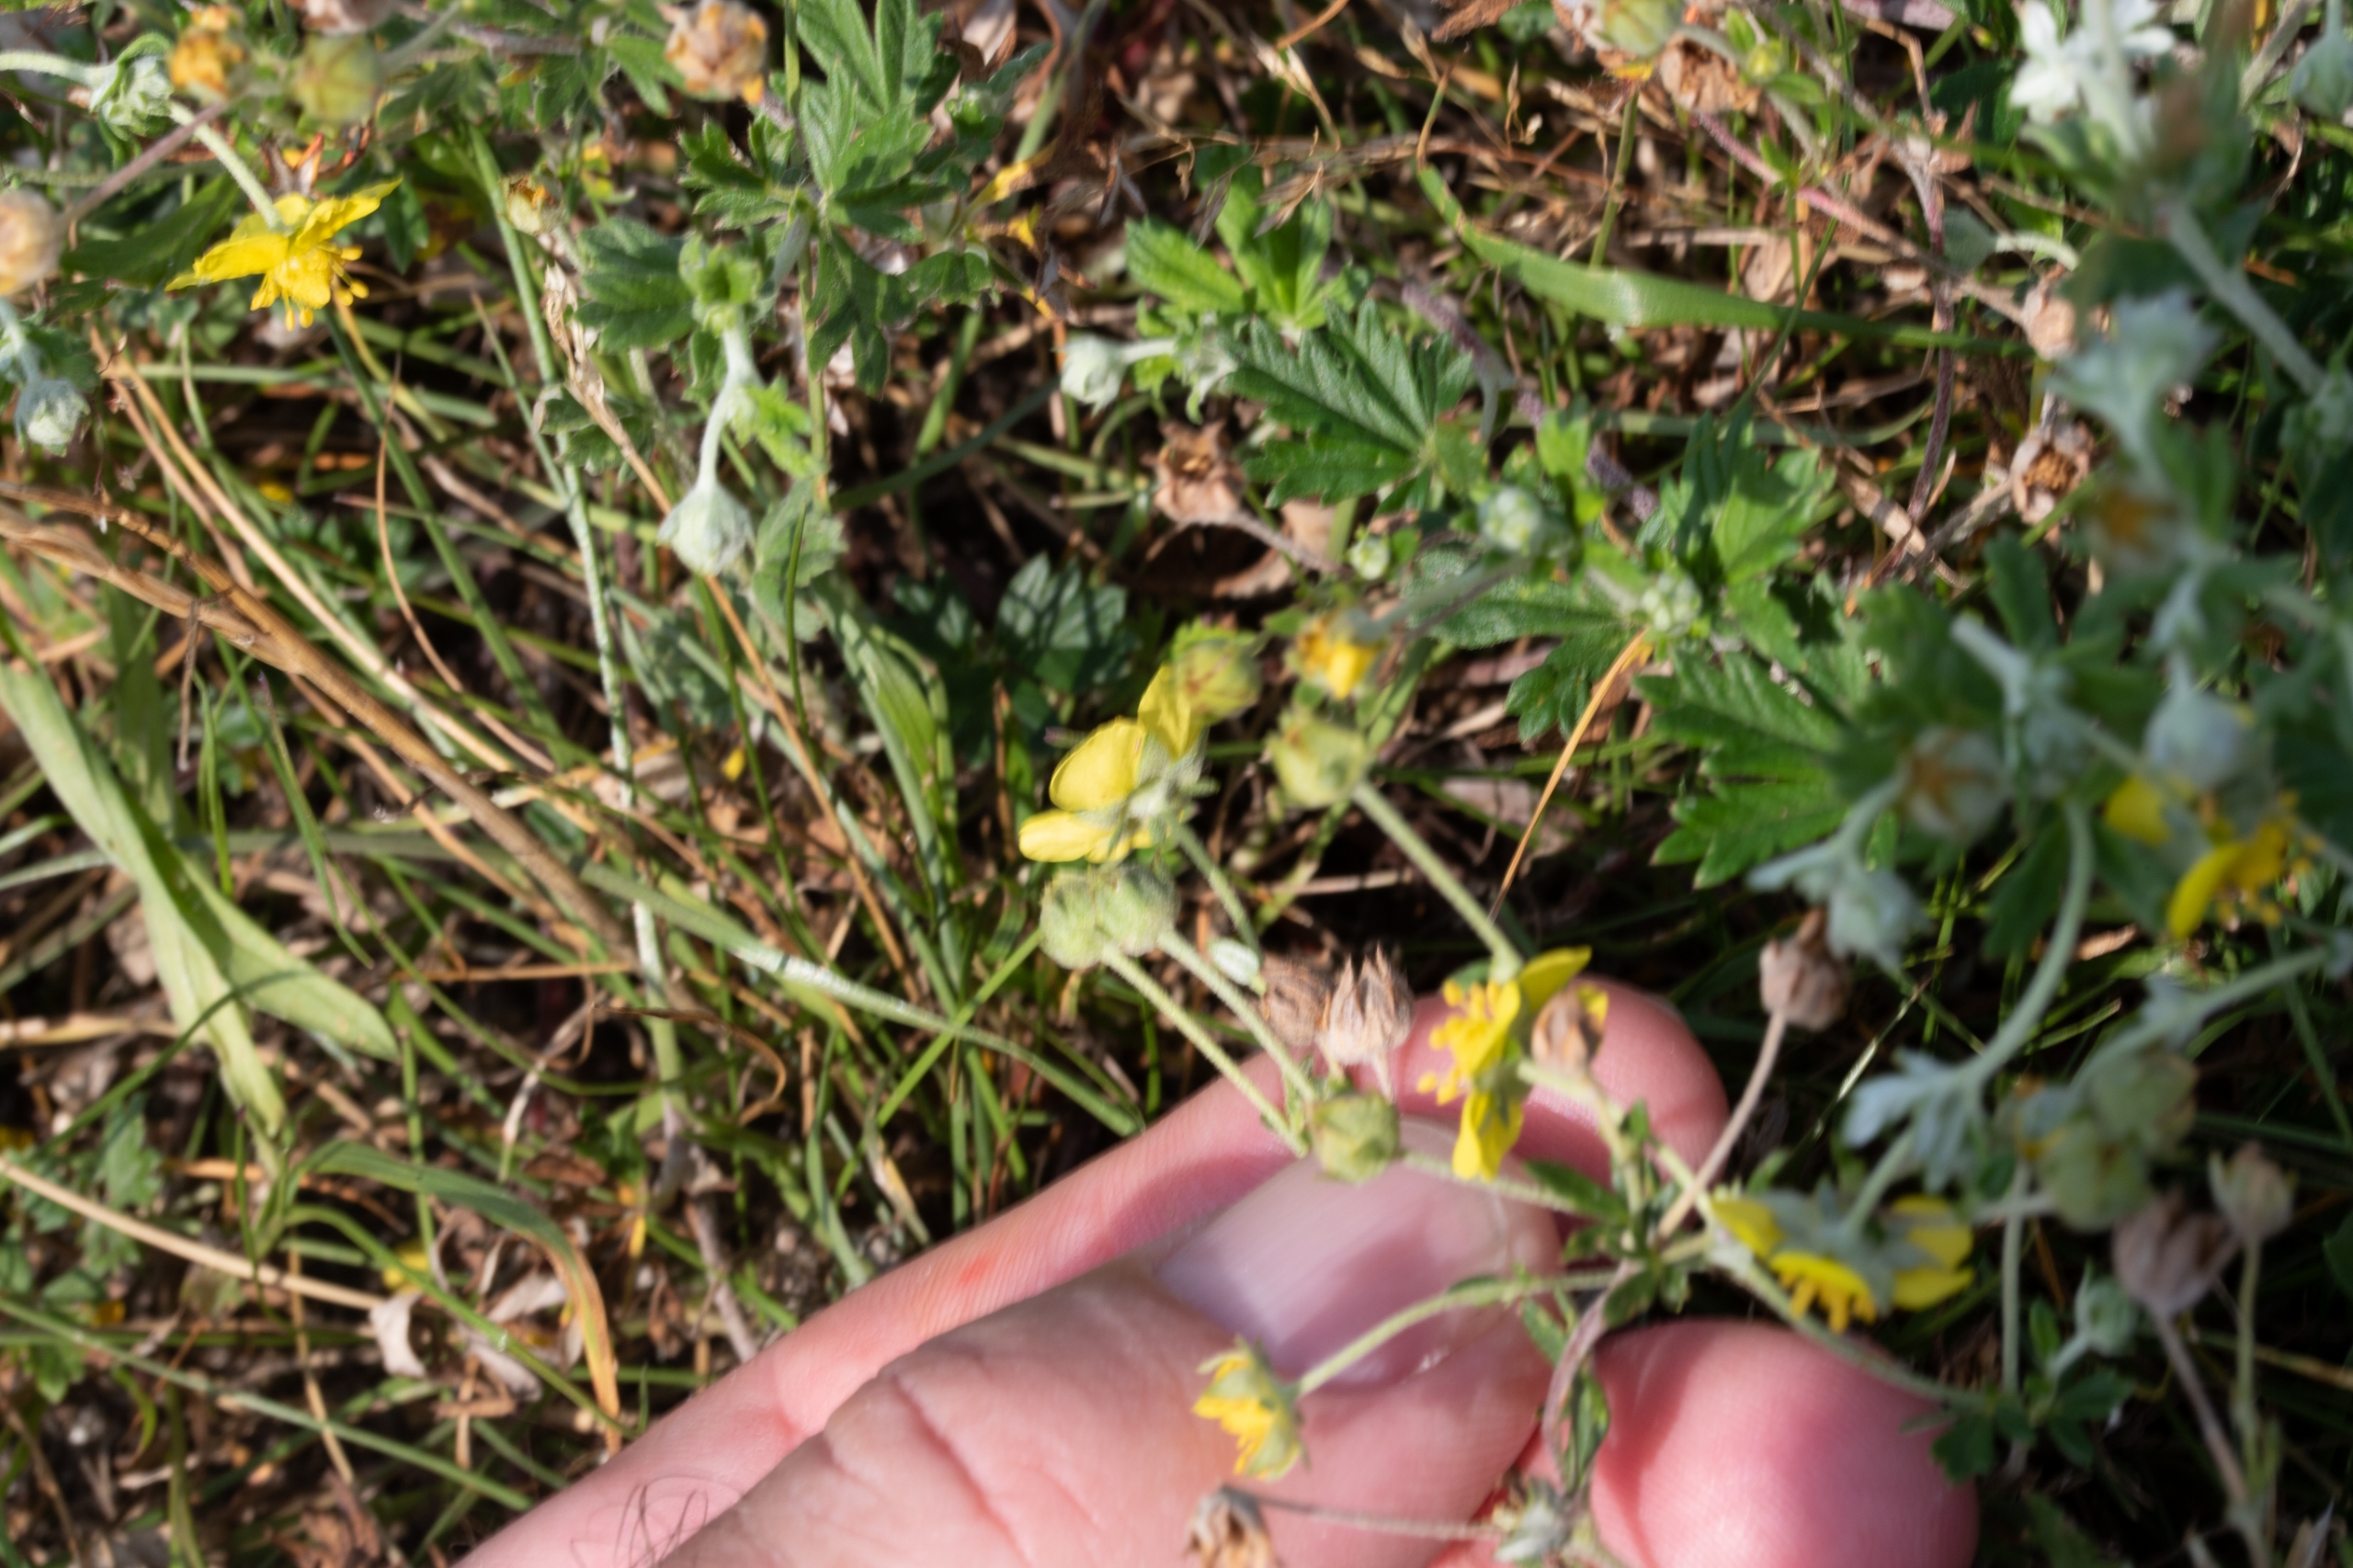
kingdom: Plantae
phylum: Tracheophyta
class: Magnoliopsida
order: Rosales
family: Rosaceae
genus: Potentilla
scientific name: Potentilla argentea
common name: Sølv-potentil
